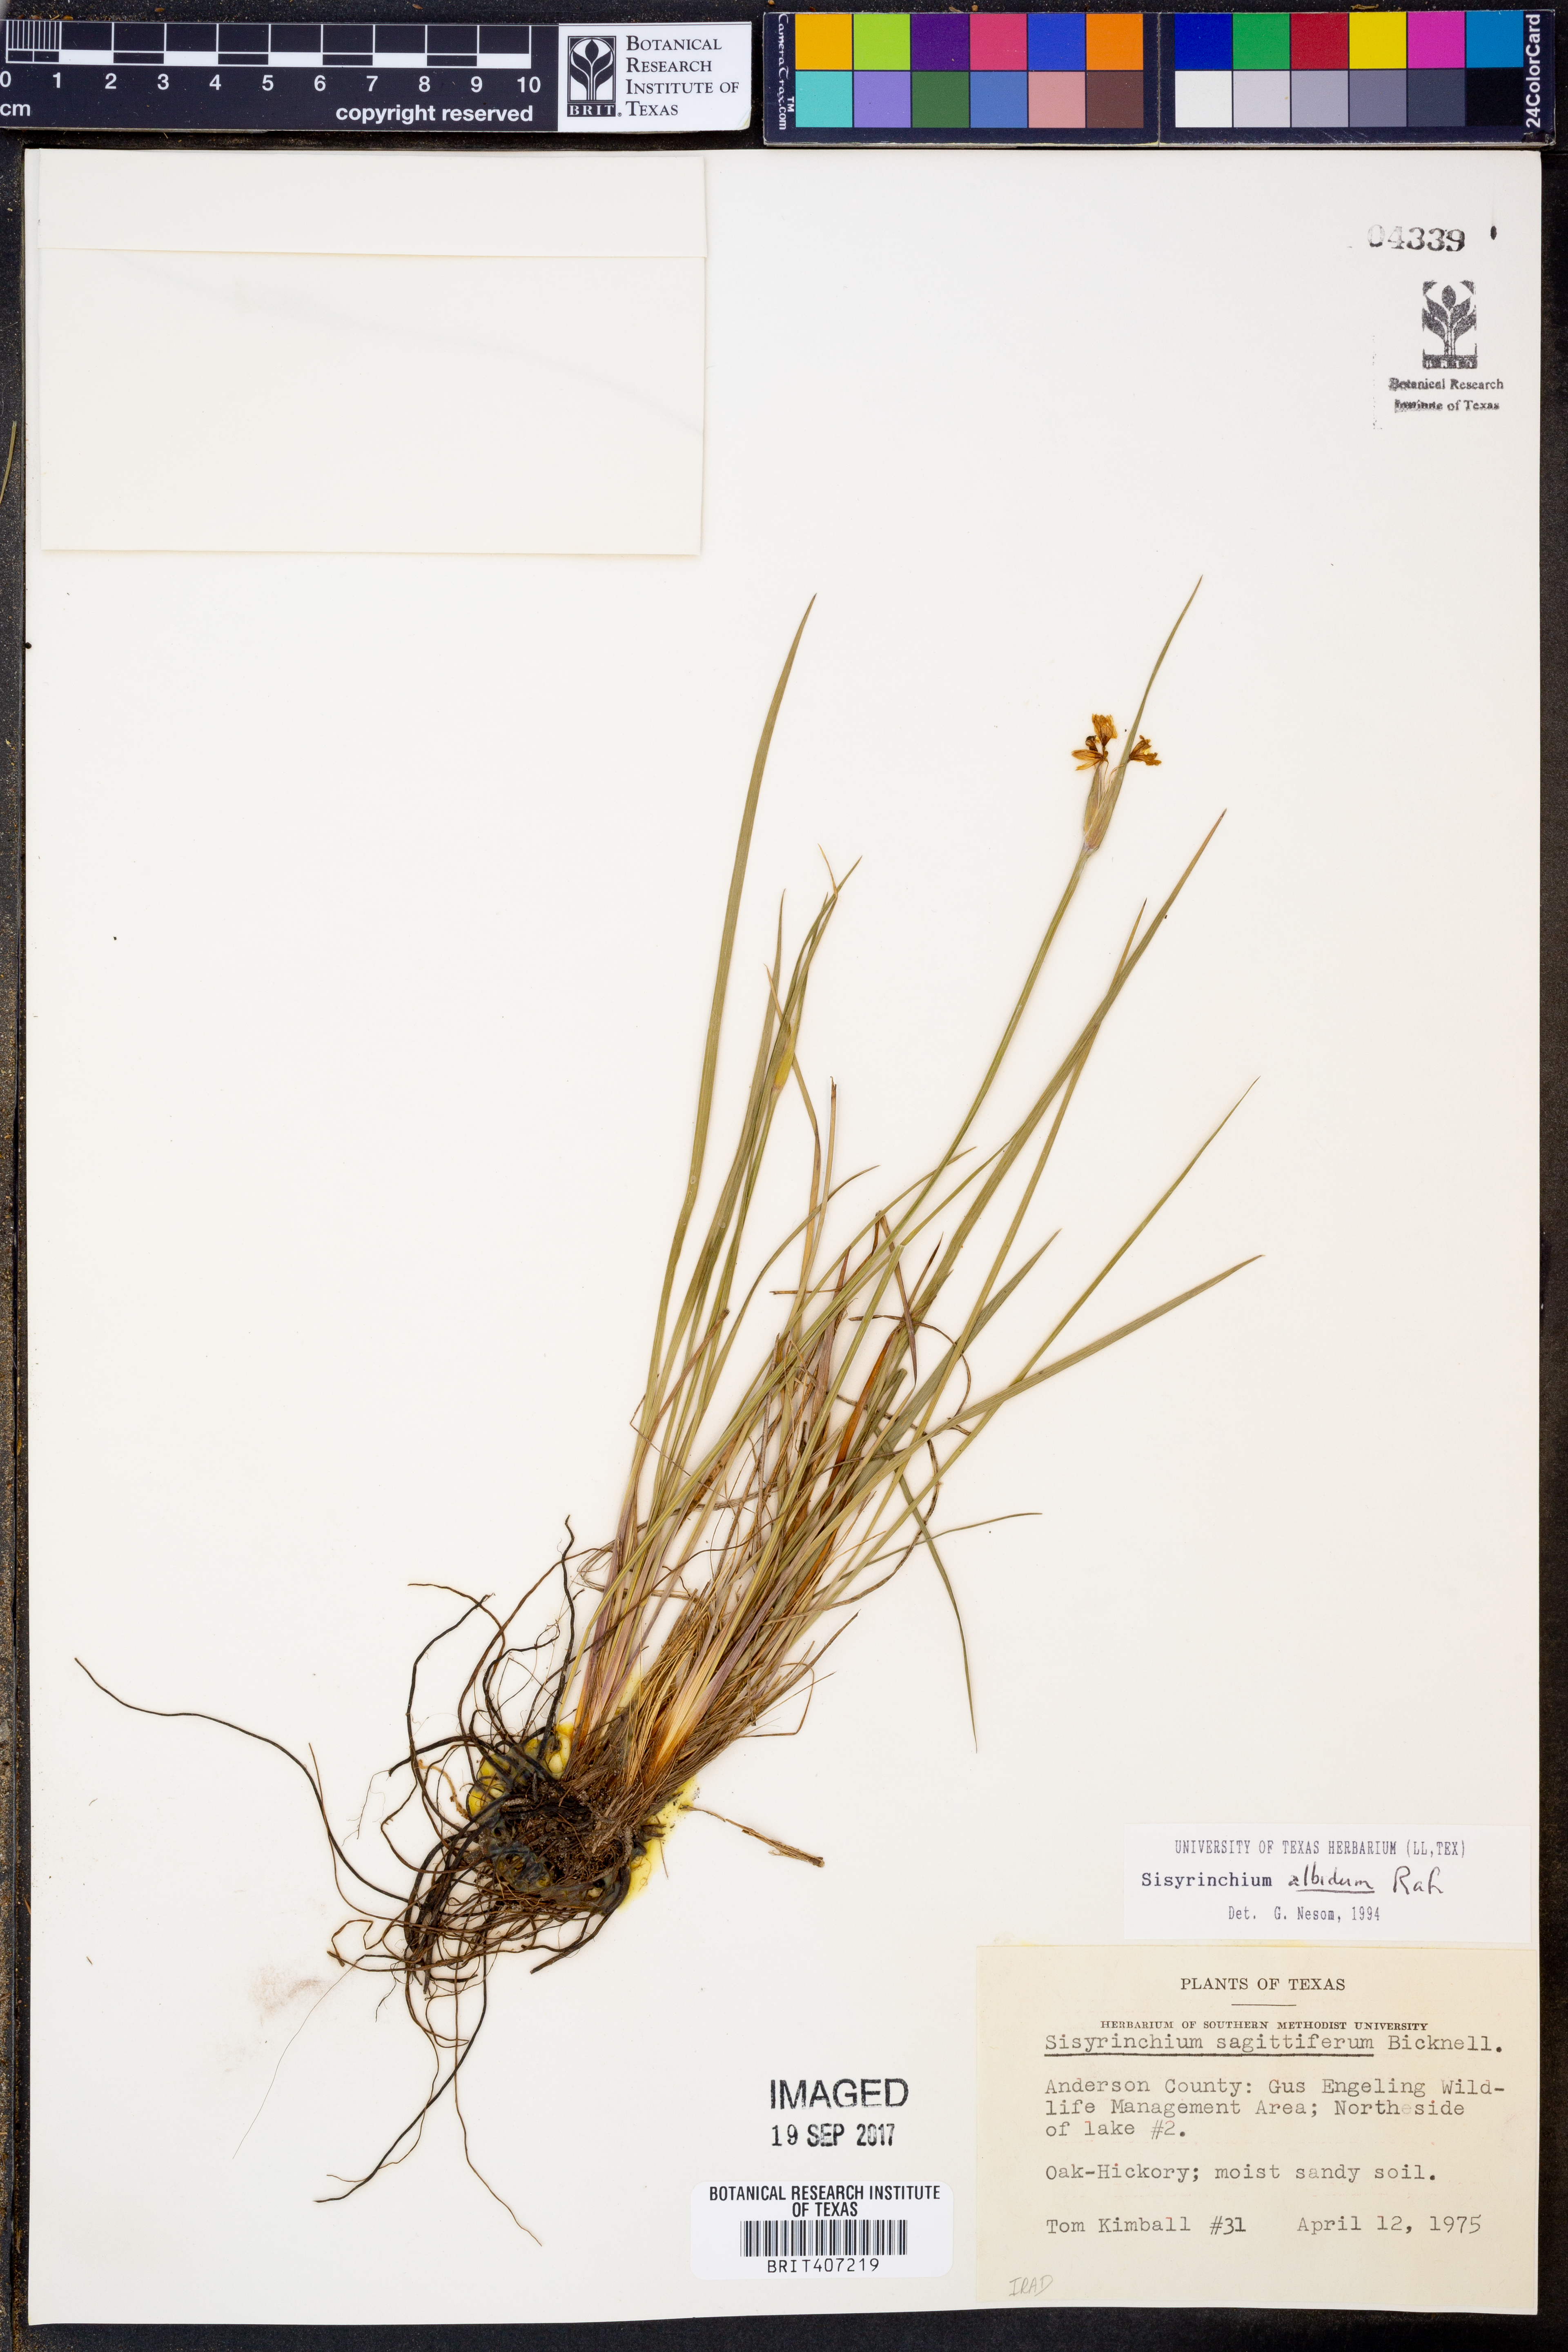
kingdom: Plantae
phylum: Tracheophyta
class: Liliopsida
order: Asparagales
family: Iridaceae
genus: Sisyrinchium
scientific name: Sisyrinchium albidum
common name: Pale blue-eyed-grass
